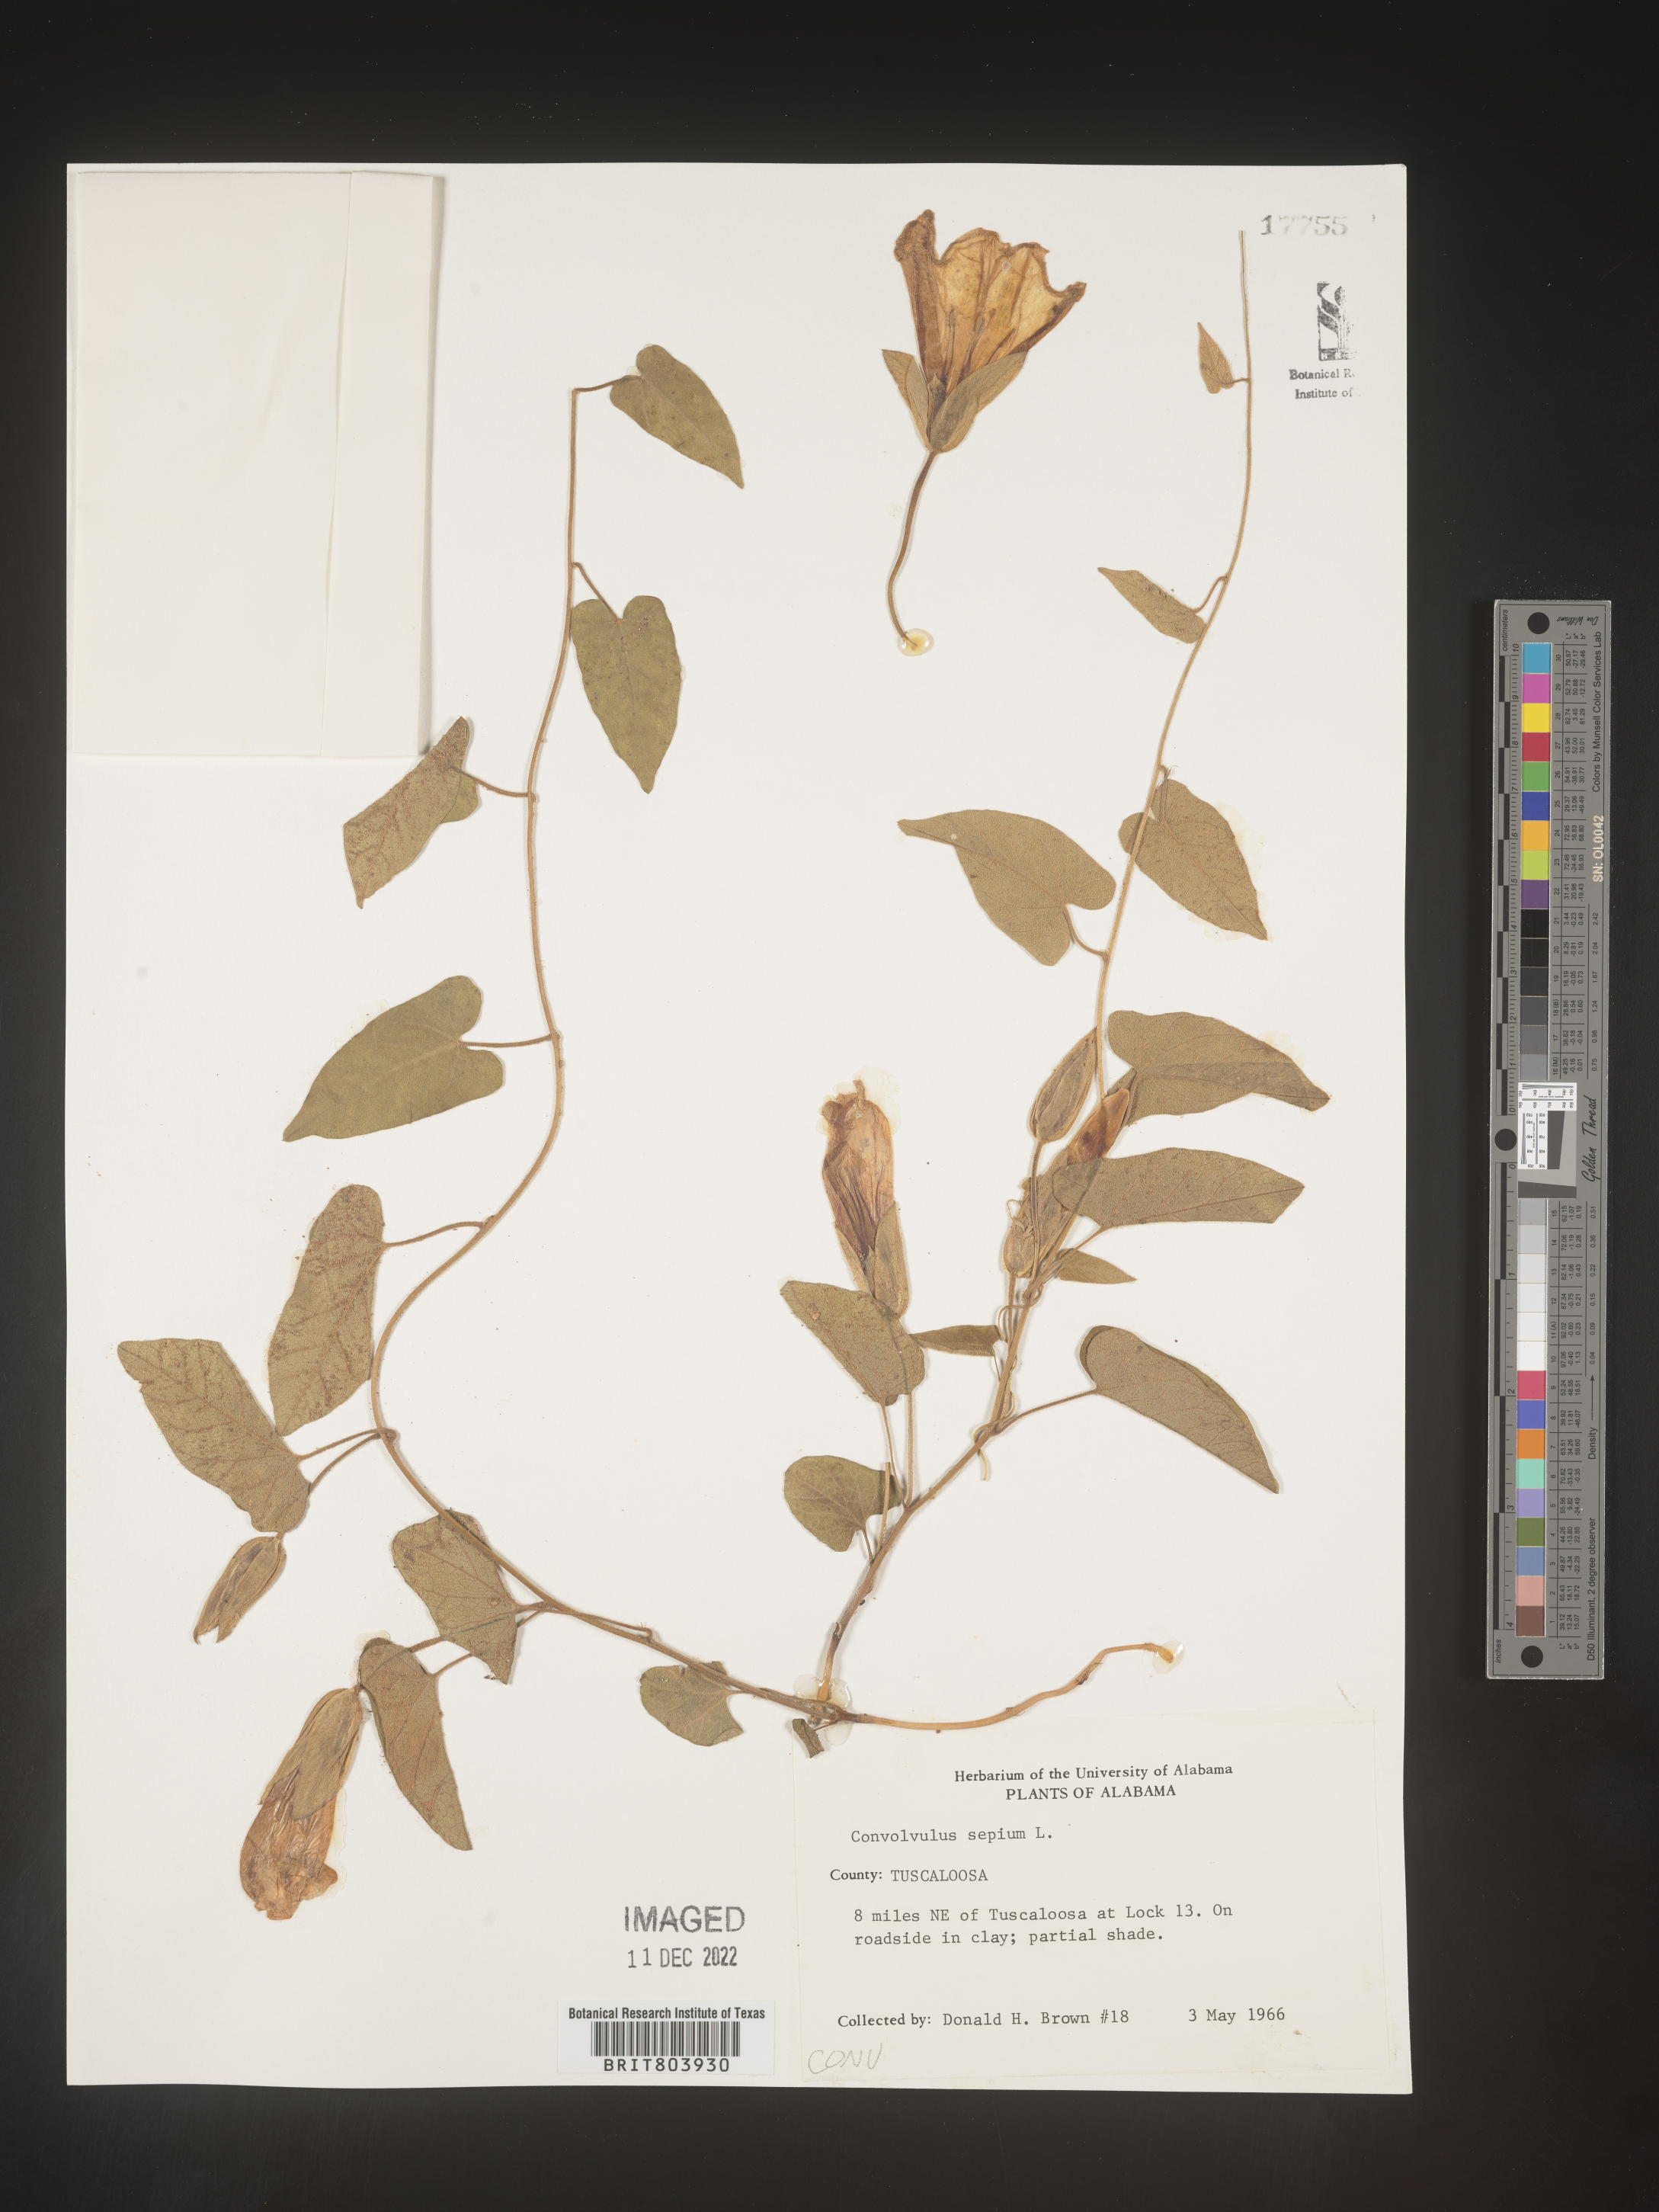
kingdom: Plantae
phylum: Tracheophyta
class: Magnoliopsida
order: Solanales
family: Convolvulaceae
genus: Calystegia
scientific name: Calystegia sepium
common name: Hedge bindweed
